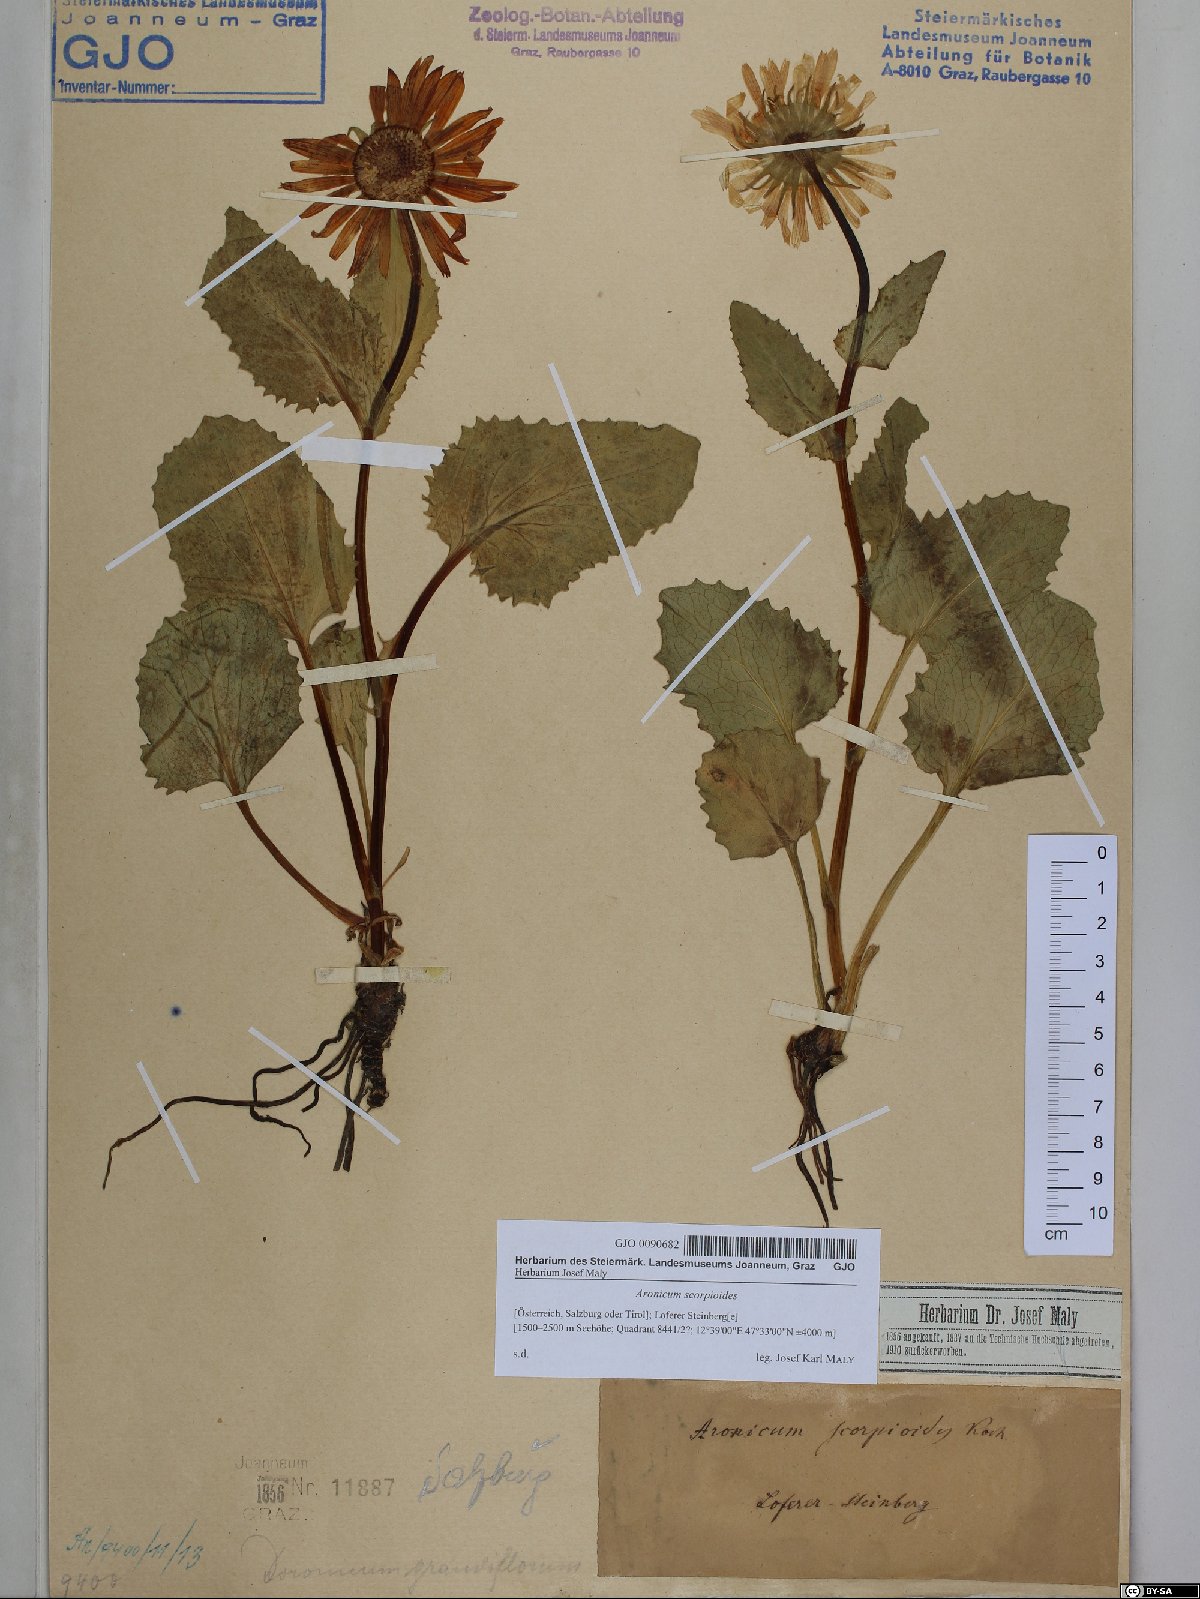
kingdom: Plantae
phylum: Tracheophyta
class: Magnoliopsida
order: Asterales
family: Asteraceae
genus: Doronicum
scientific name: Doronicum grandiflorum
